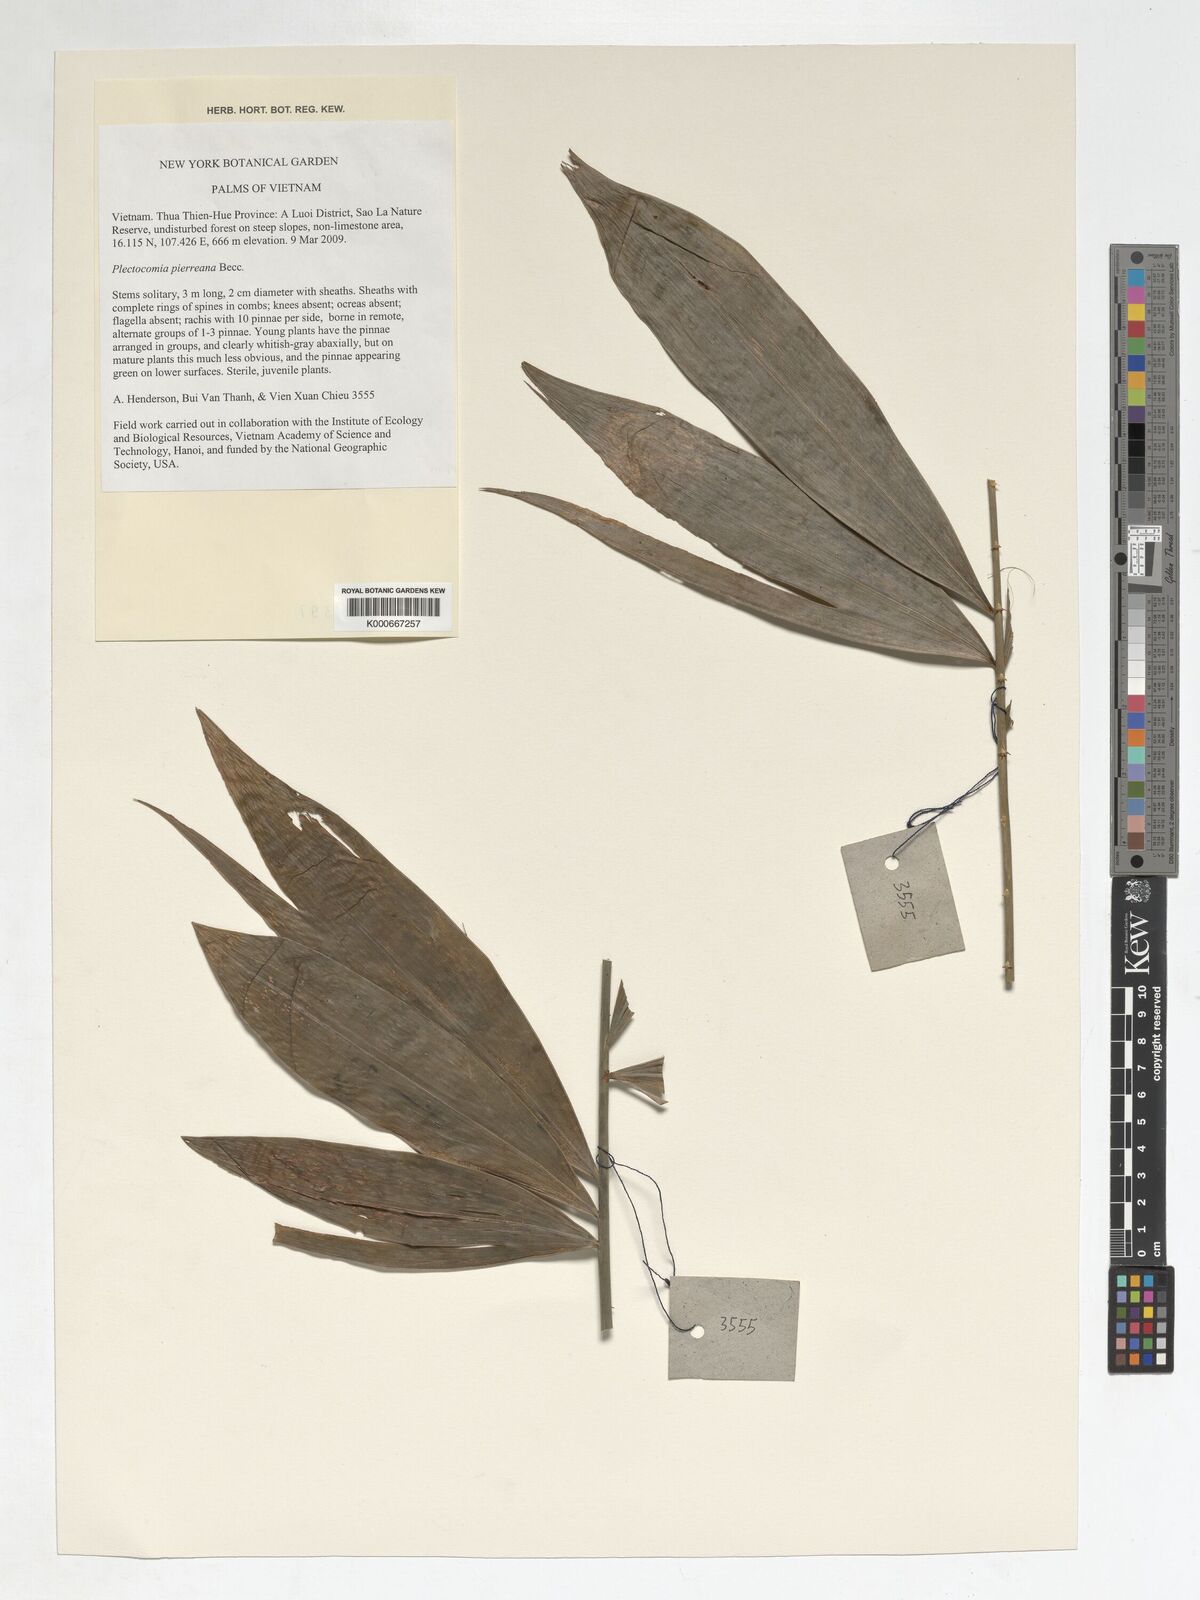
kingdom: Plantae
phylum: Tracheophyta
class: Liliopsida
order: Arecales
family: Arecaceae
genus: Plectocomia
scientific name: Plectocomia pierreana
